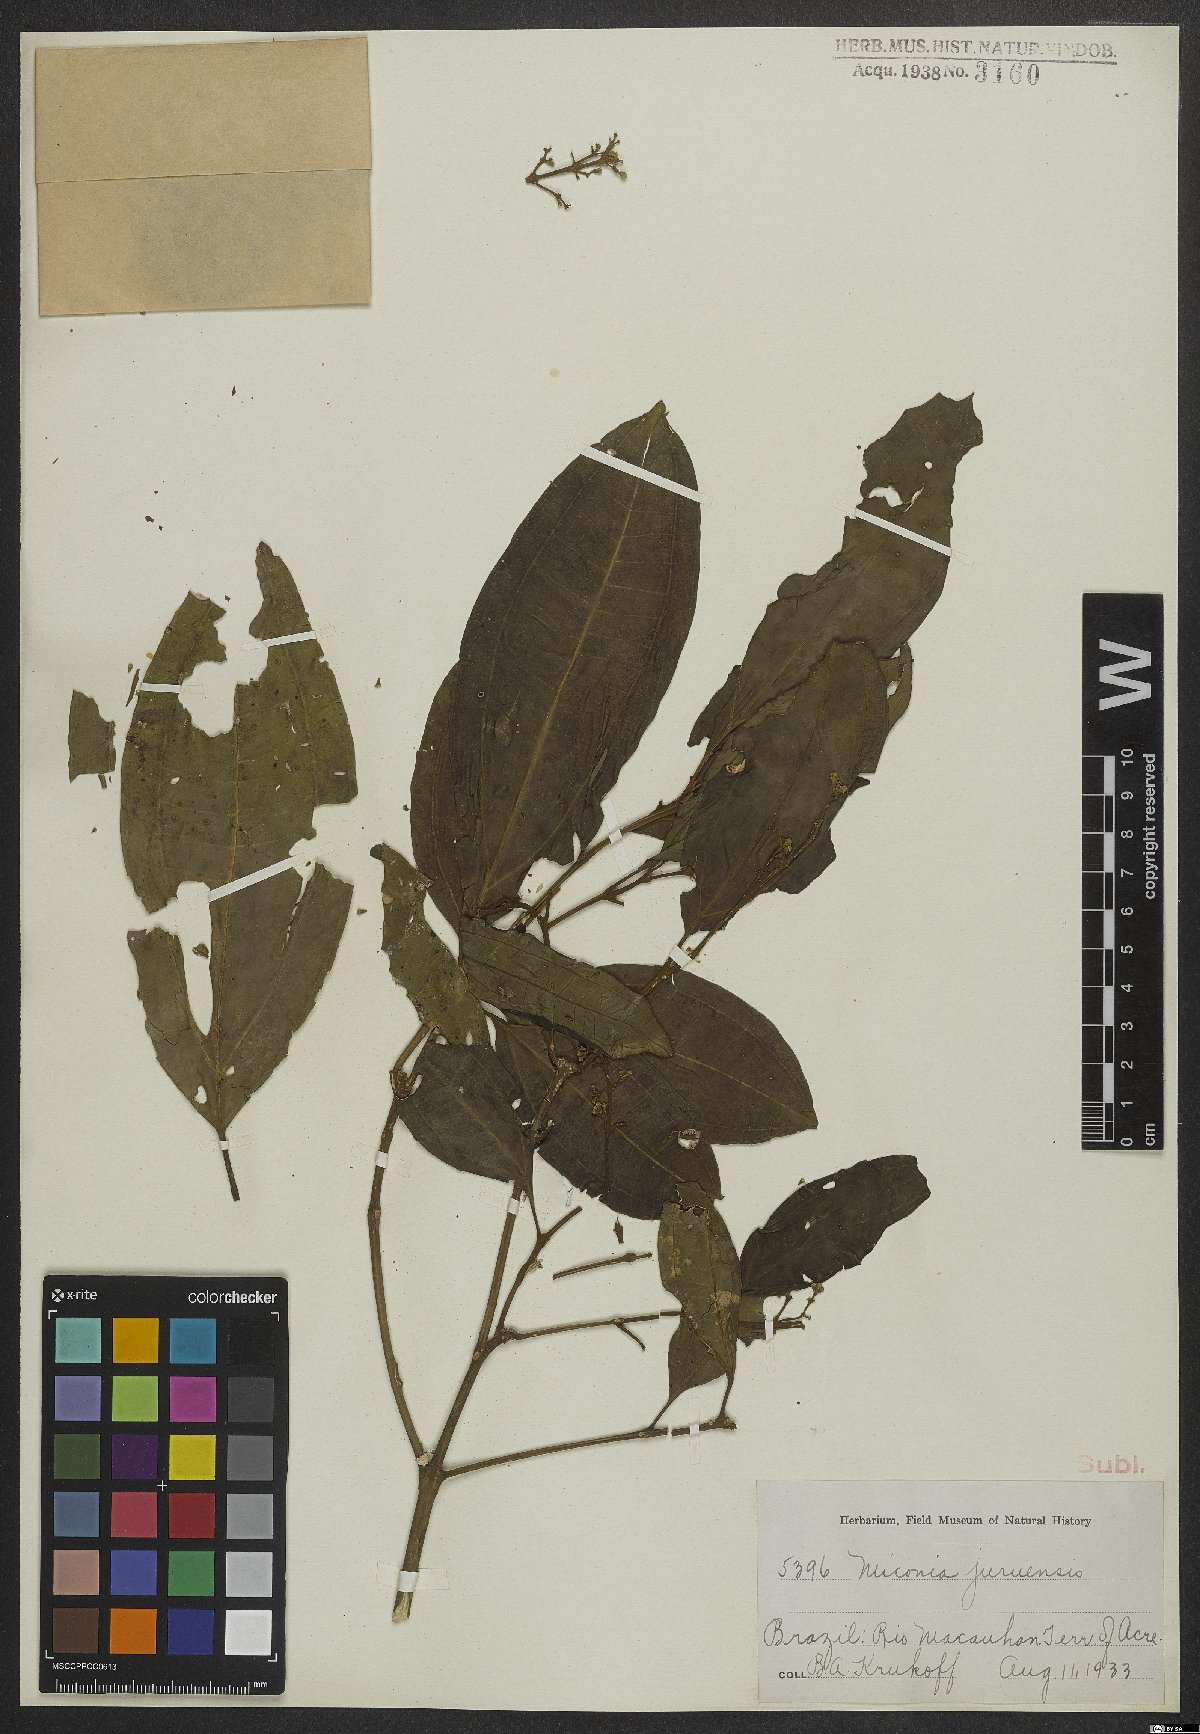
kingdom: Plantae
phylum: Tracheophyta
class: Magnoliopsida
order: Myrtales
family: Melastomataceae
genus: Miconia
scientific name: Miconia juruensis
